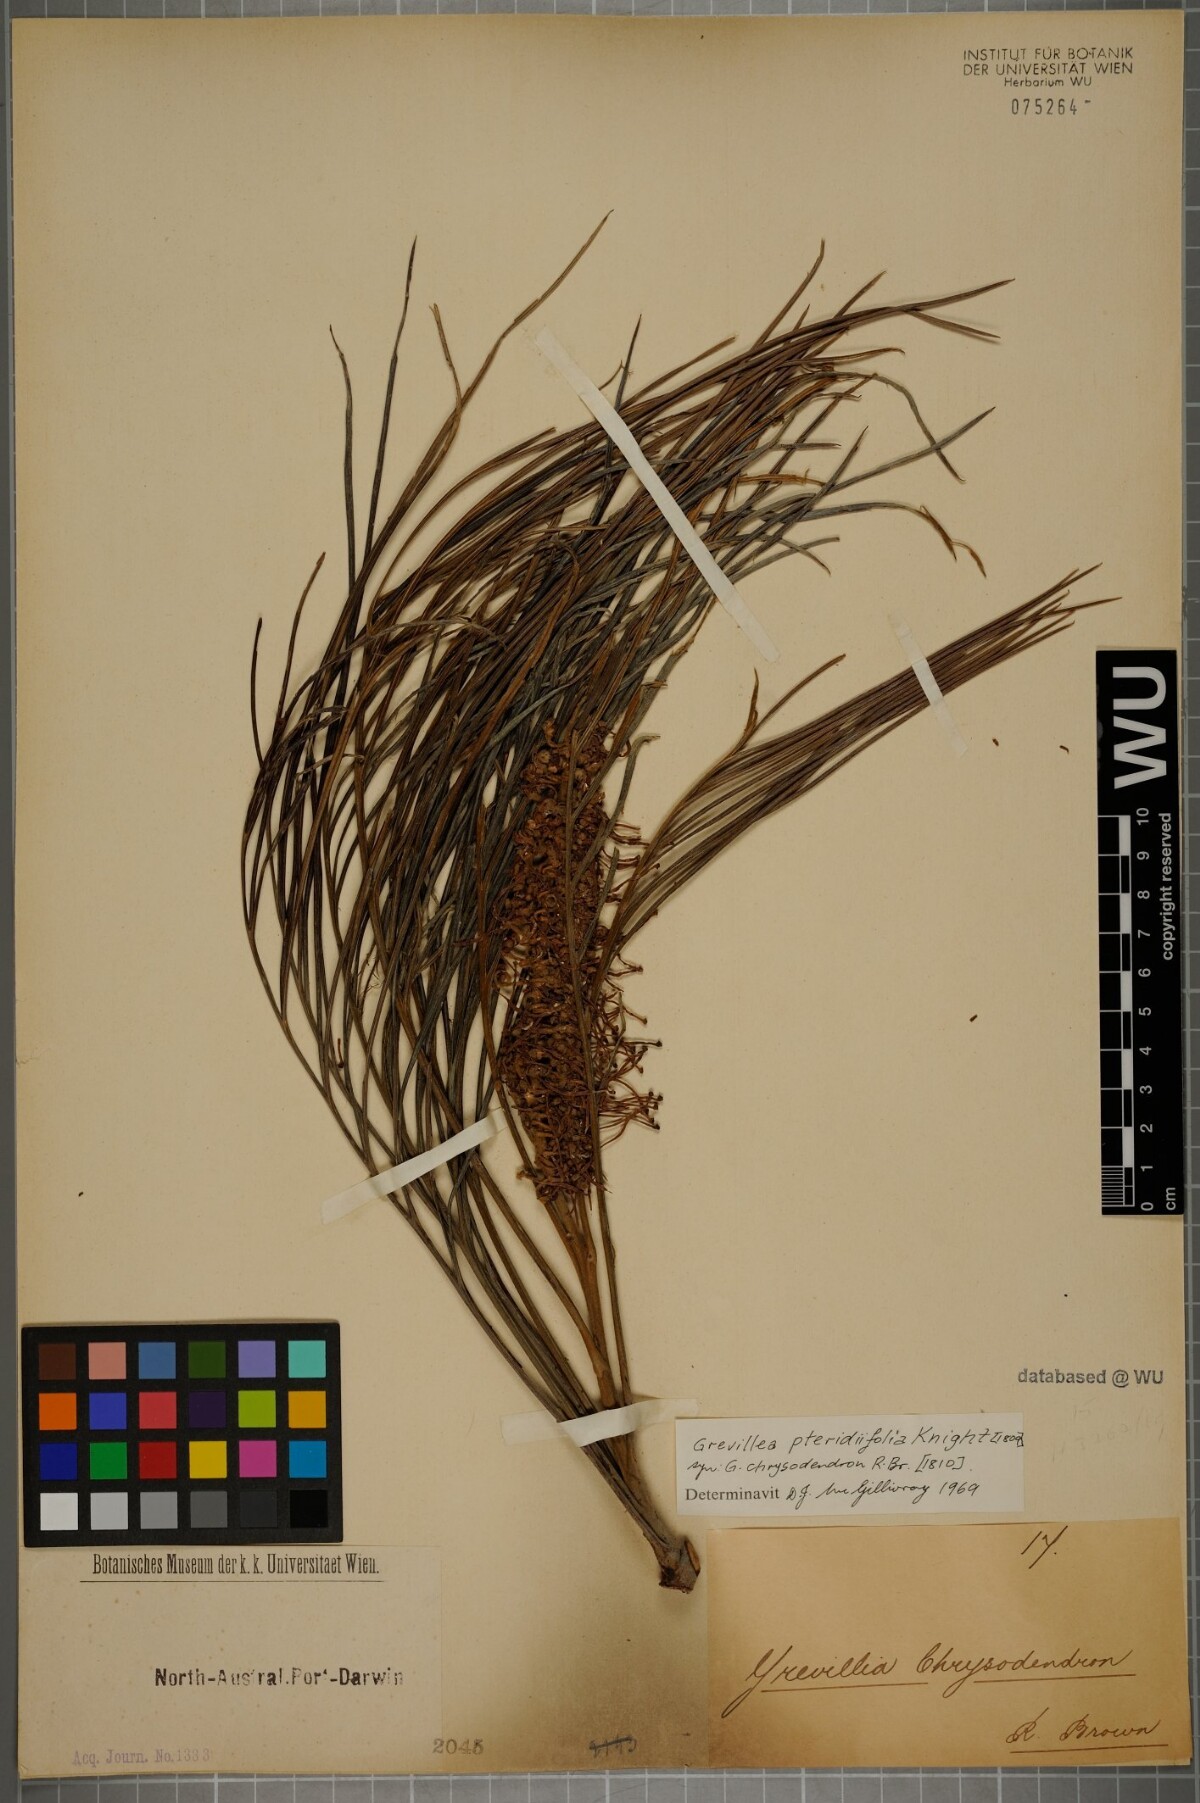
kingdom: Plantae
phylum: Tracheophyta
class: Magnoliopsida
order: Proteales
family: Proteaceae
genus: Grevillea
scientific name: Grevillea pteridifolia
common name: Golden grevillea
